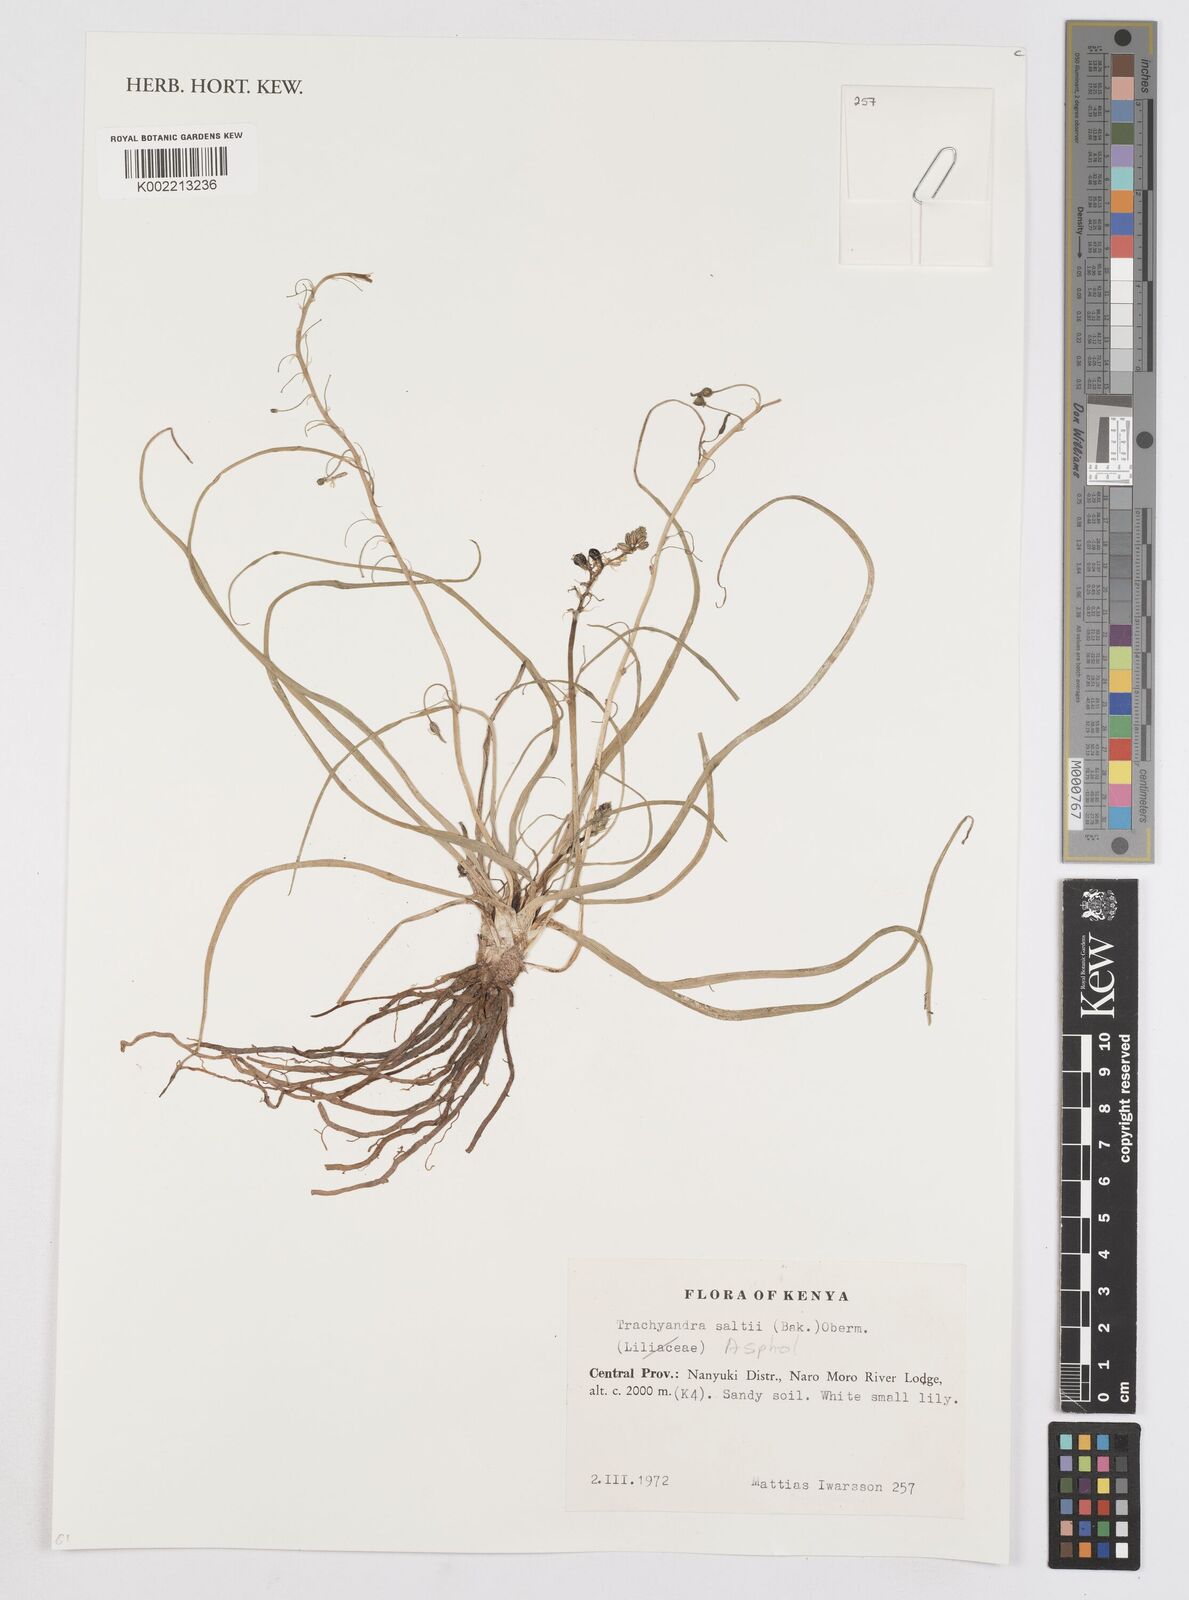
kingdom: Plantae
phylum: Tracheophyta
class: Liliopsida
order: Asparagales
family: Asphodelaceae
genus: Trachyandra
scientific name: Trachyandra saltii
